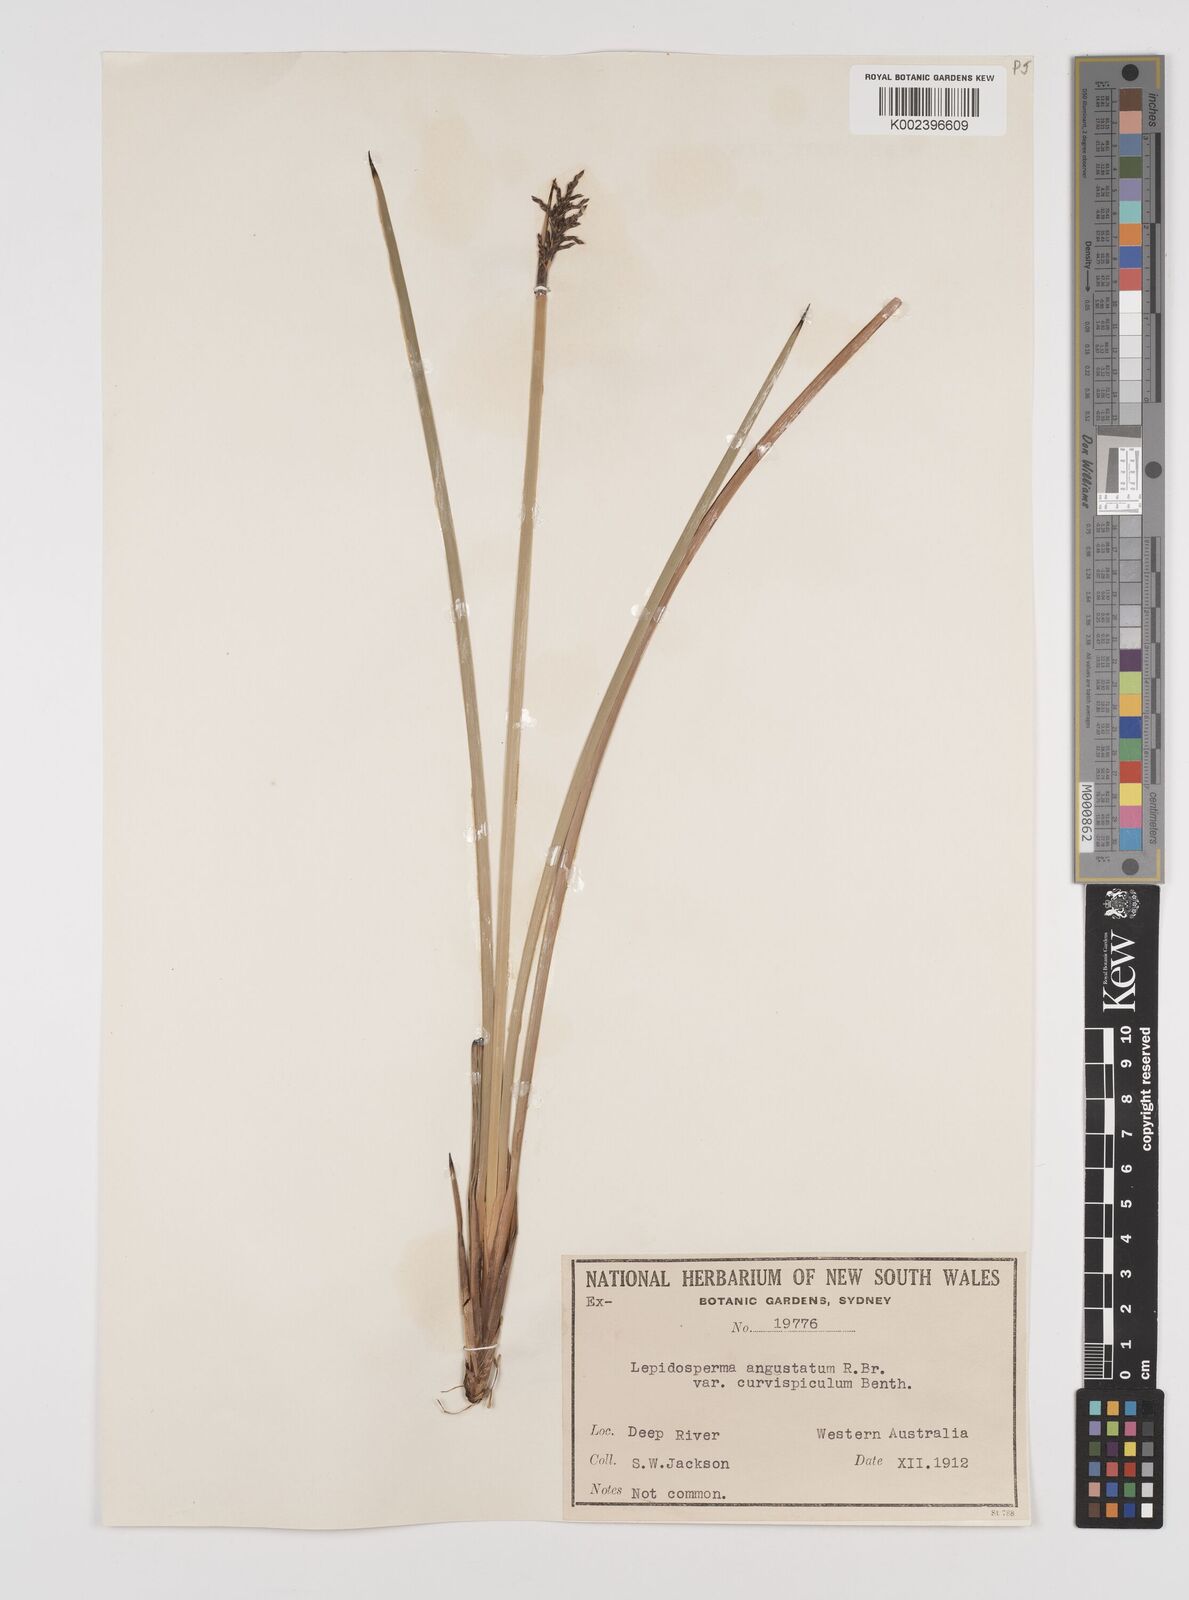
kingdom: Plantae
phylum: Tracheophyta
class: Liliopsida
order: Poales
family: Cyperaceae
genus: Lepidosperma
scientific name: Lepidosperma angustatum
